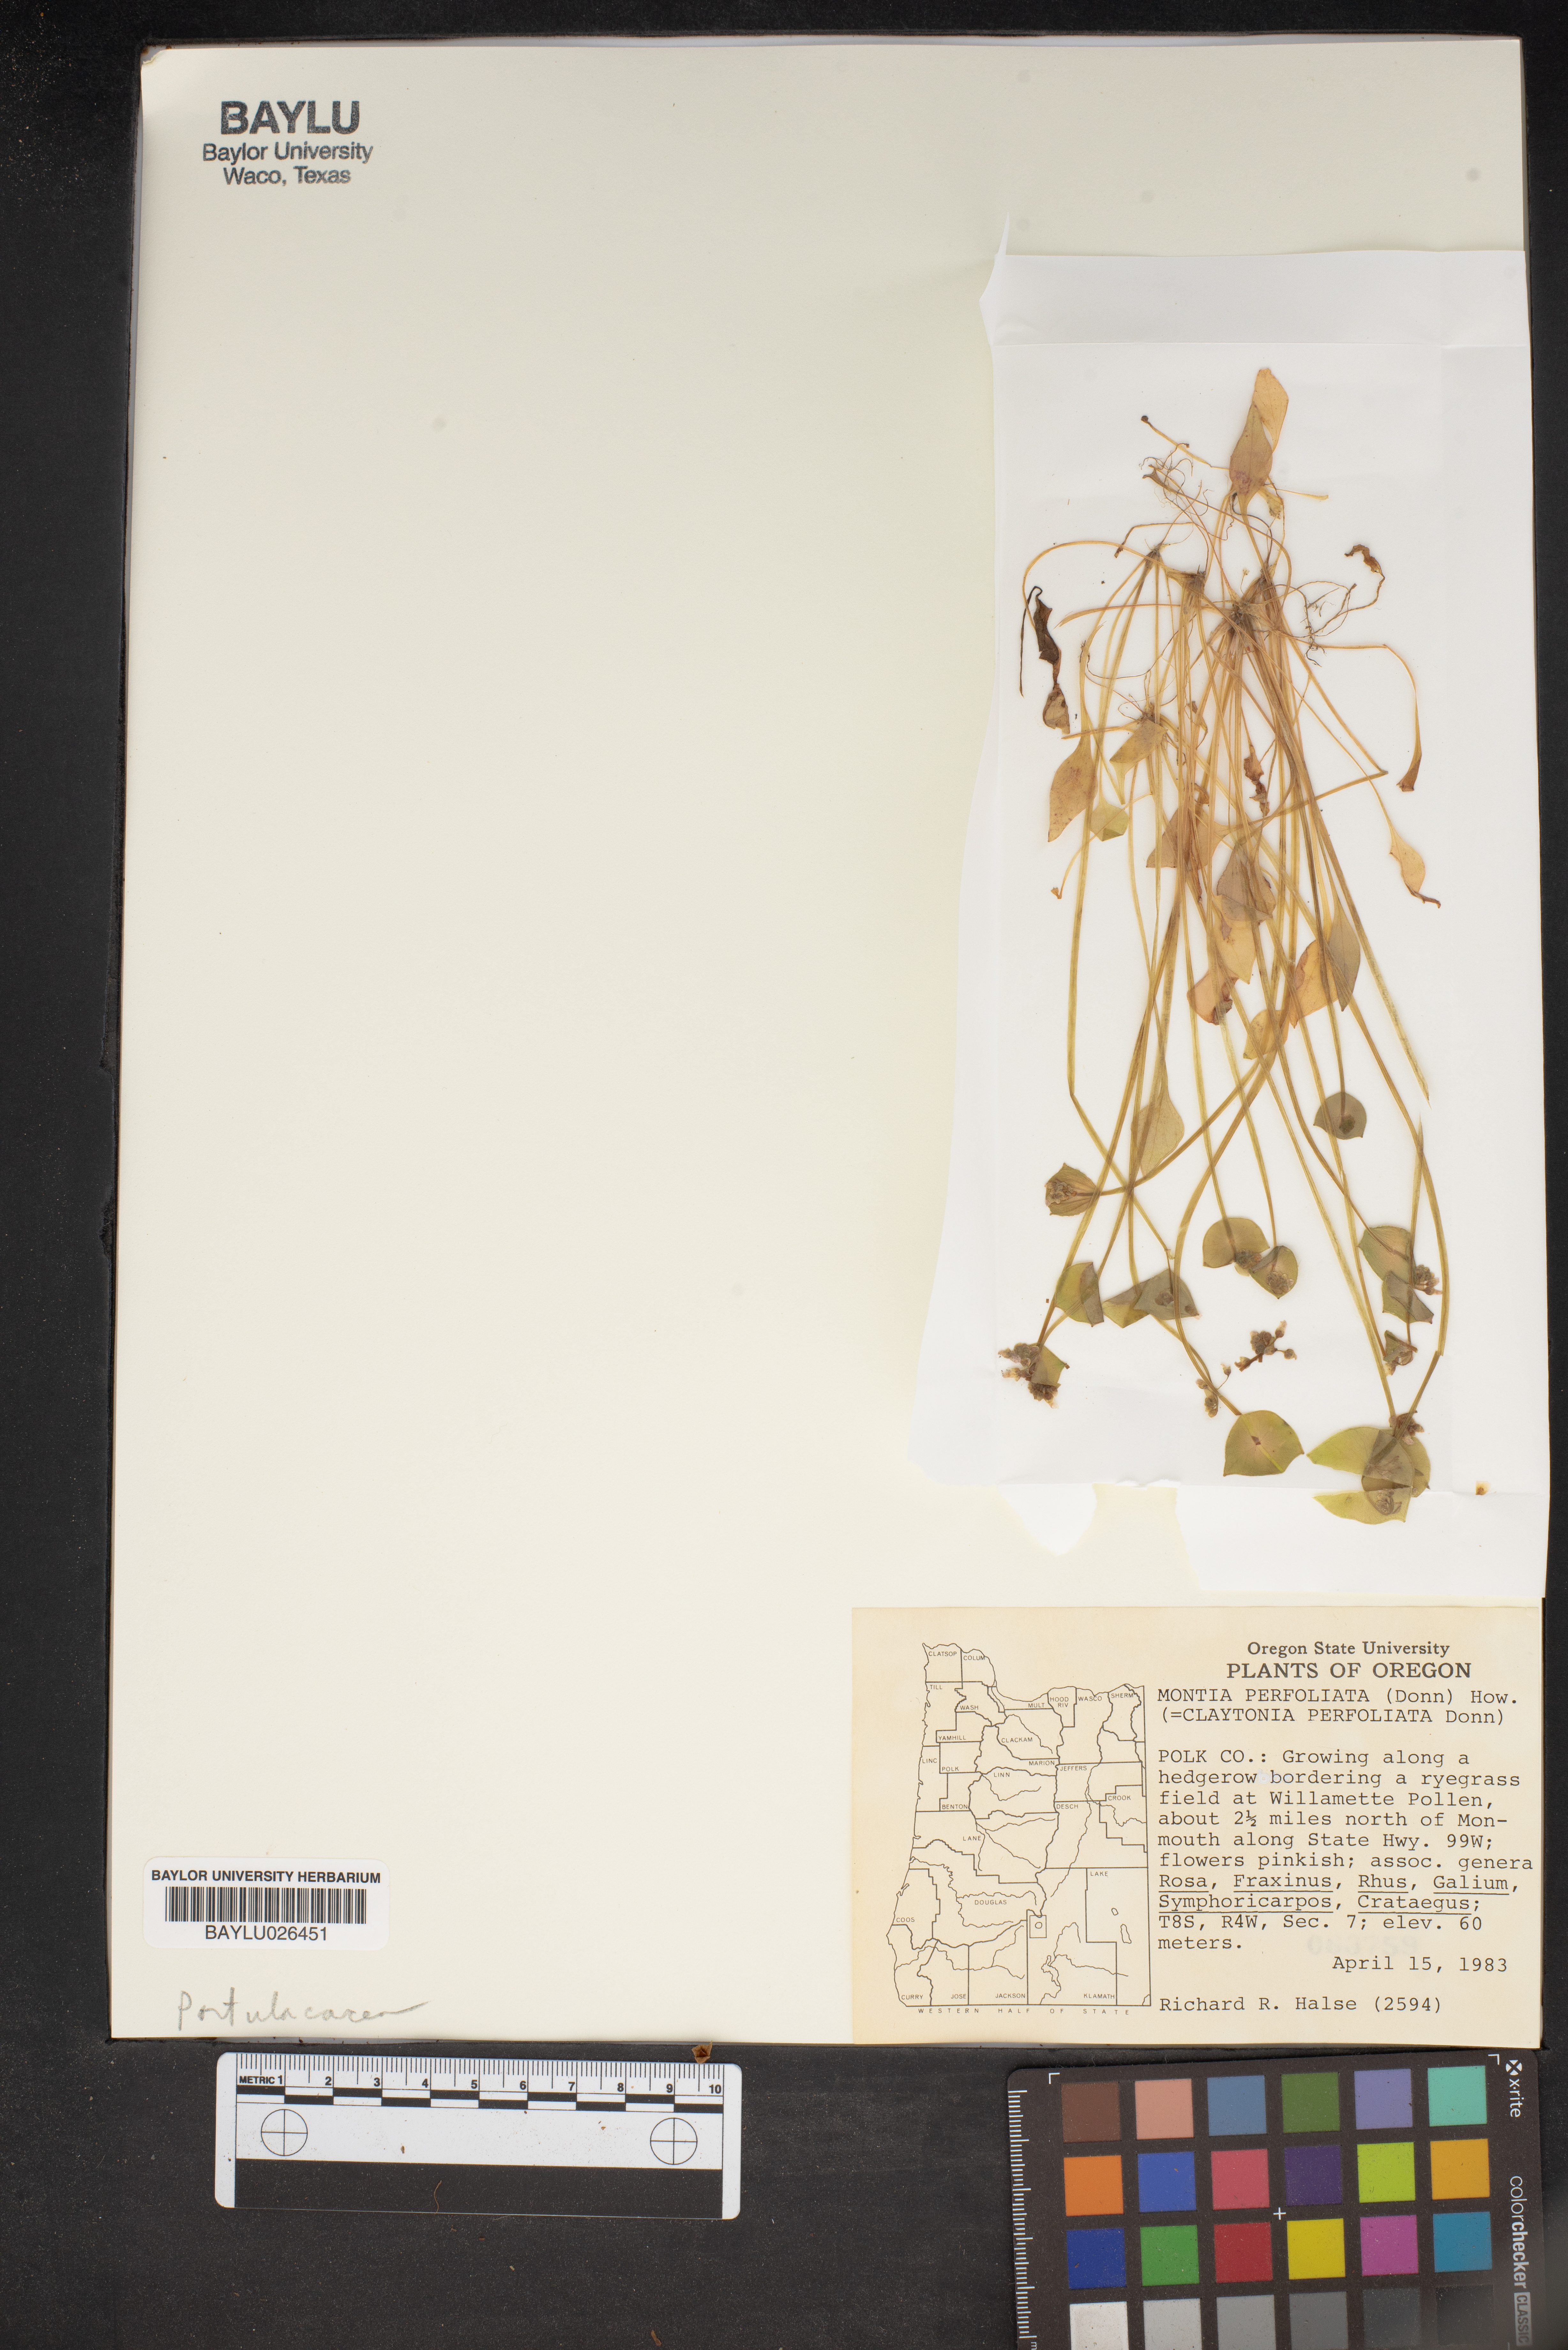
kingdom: Plantae
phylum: Tracheophyta
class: Magnoliopsida
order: Caryophyllales
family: Montiaceae
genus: Claytonia
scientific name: Claytonia perfoliata
